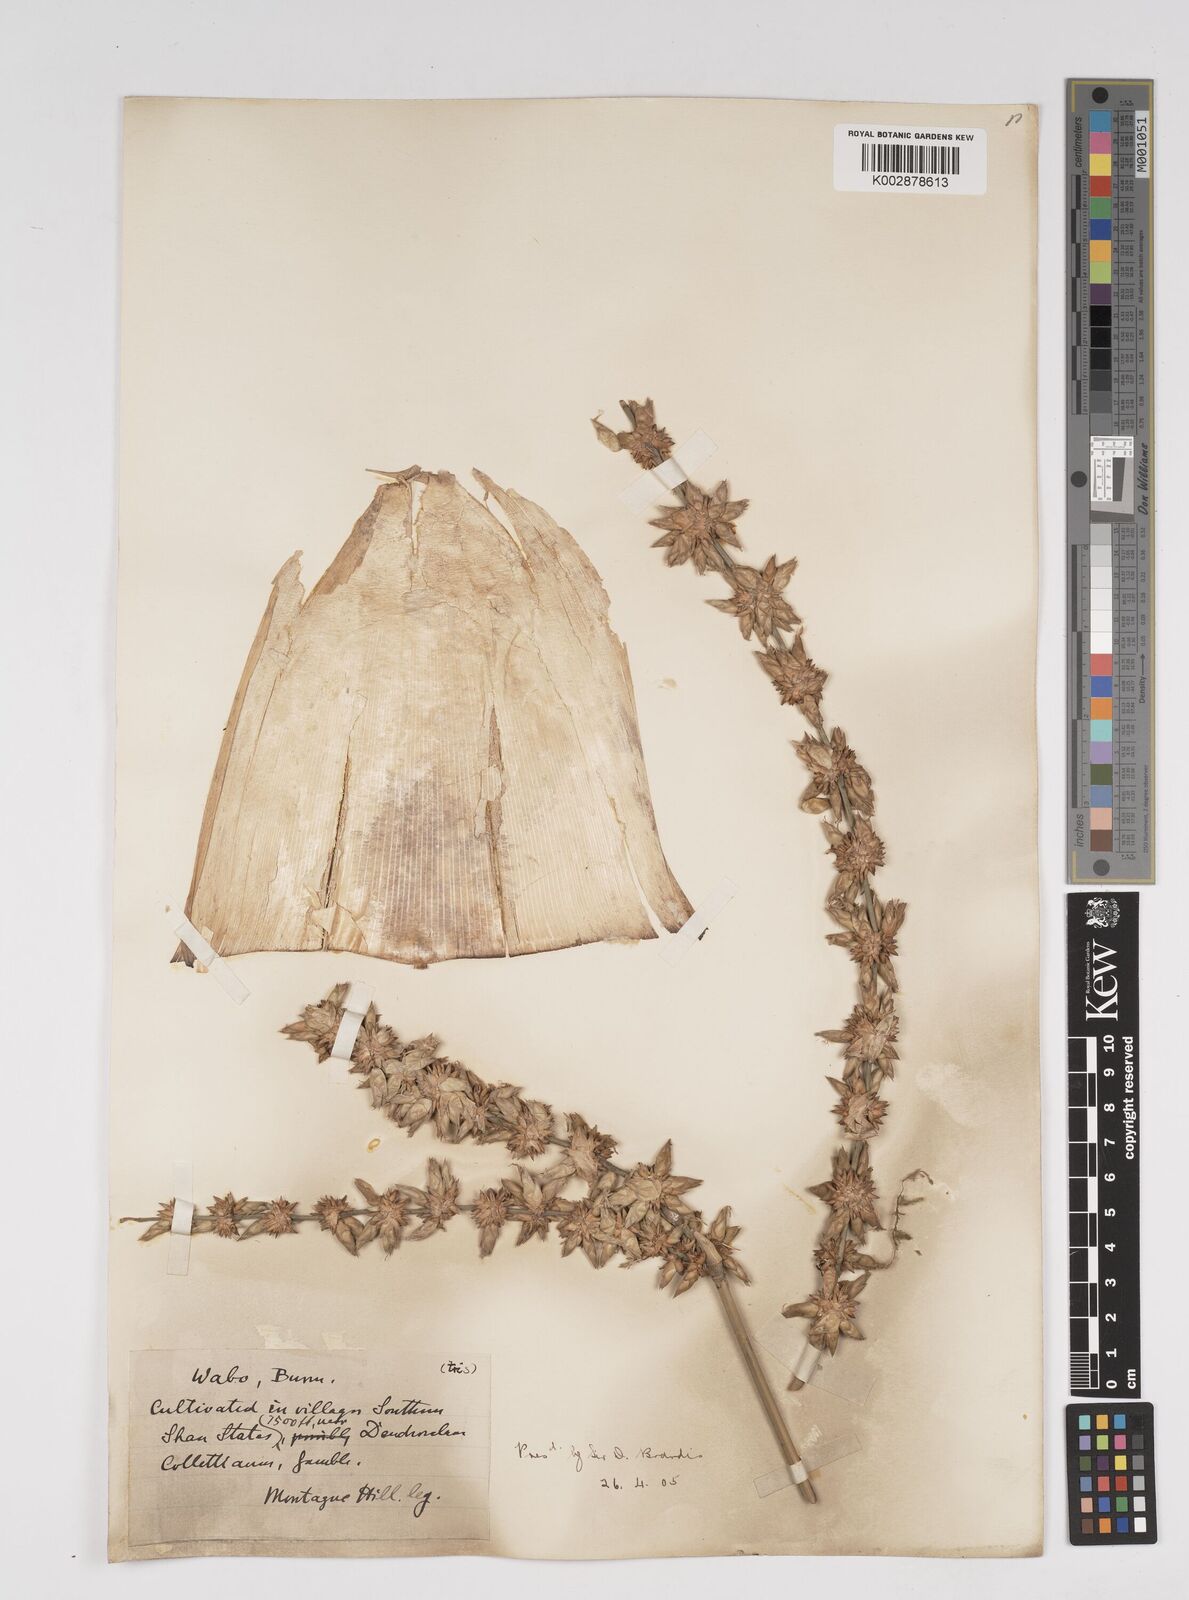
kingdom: Plantae
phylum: Tracheophyta
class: Liliopsida
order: Poales
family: Poaceae
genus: Dendrocalamus
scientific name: Dendrocalamus collettianus
